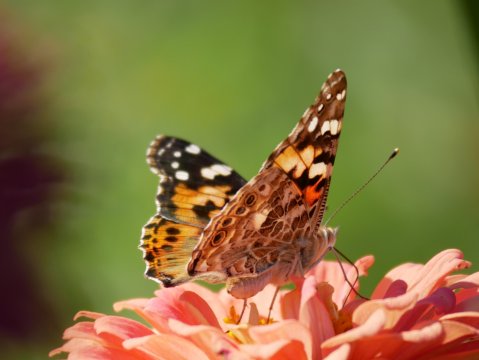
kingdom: Animalia
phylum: Arthropoda
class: Insecta
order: Lepidoptera
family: Nymphalidae
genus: Vanessa
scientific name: Vanessa cardui
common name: Painted Lady
